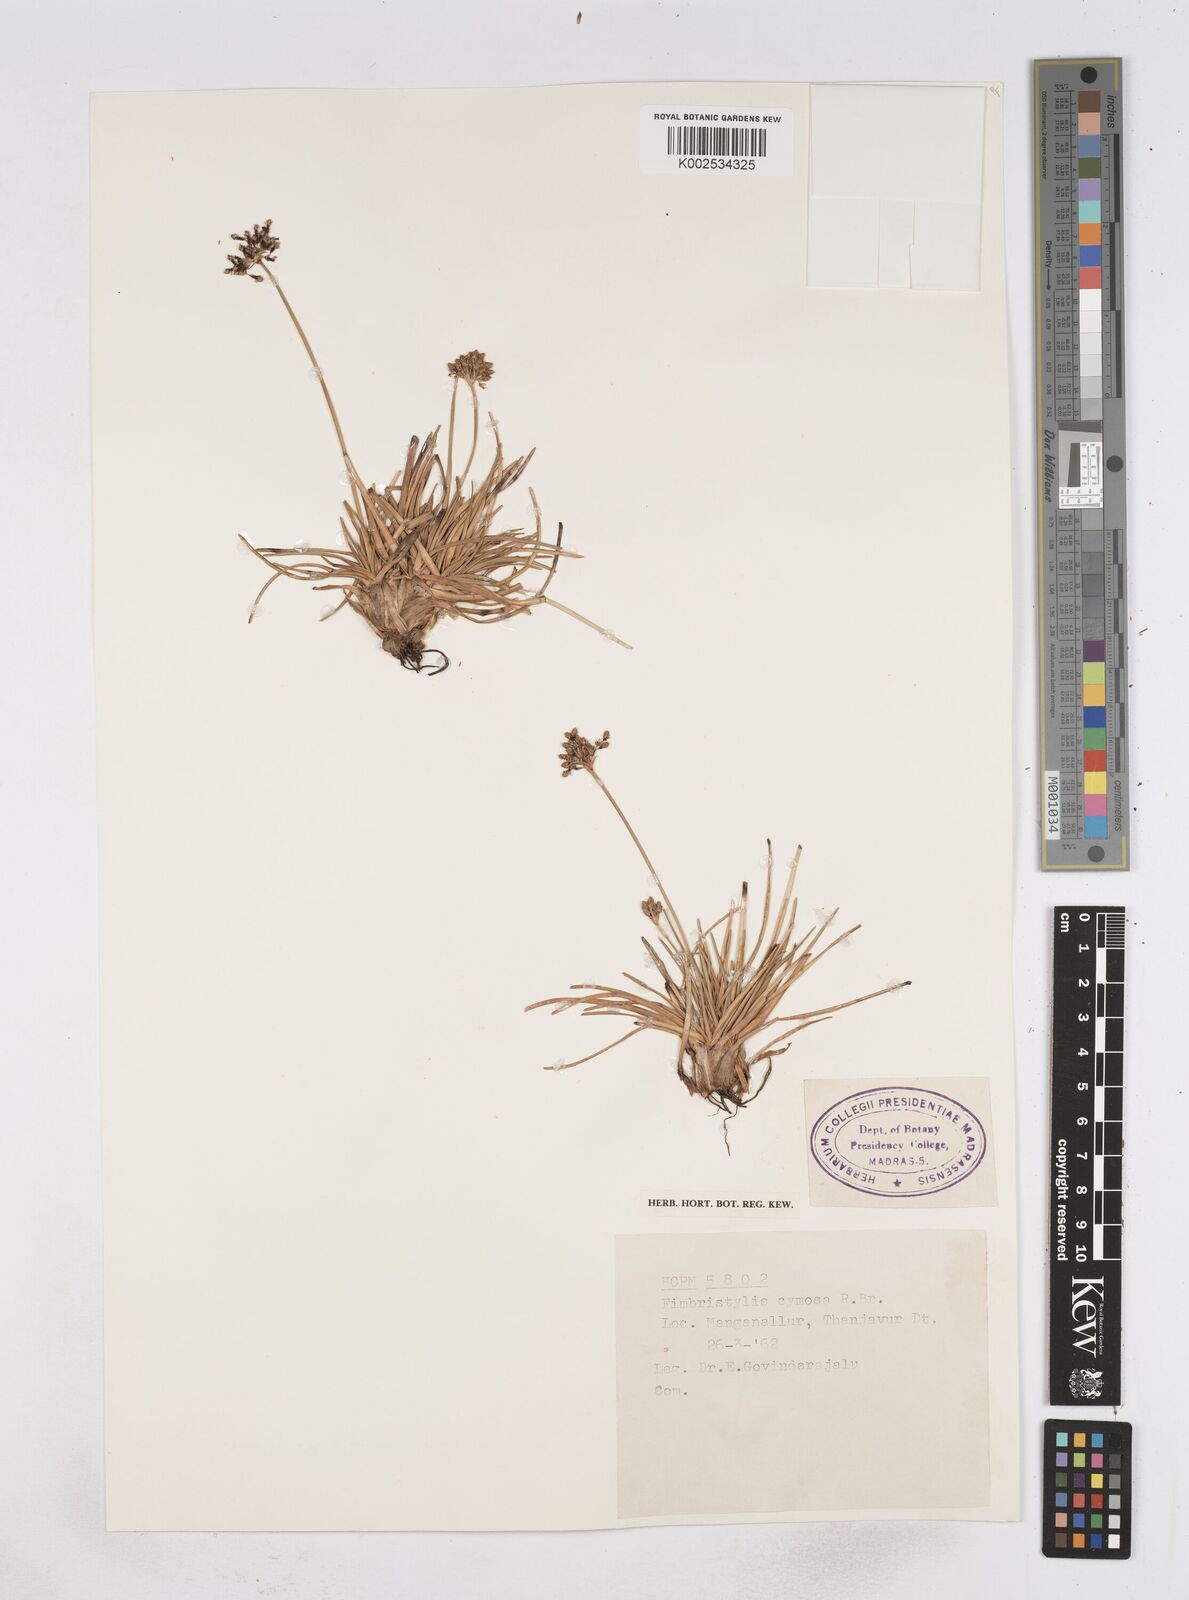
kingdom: Plantae
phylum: Tracheophyta
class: Liliopsida
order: Poales
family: Cyperaceae
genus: Fimbristylis
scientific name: Fimbristylis cymosa
